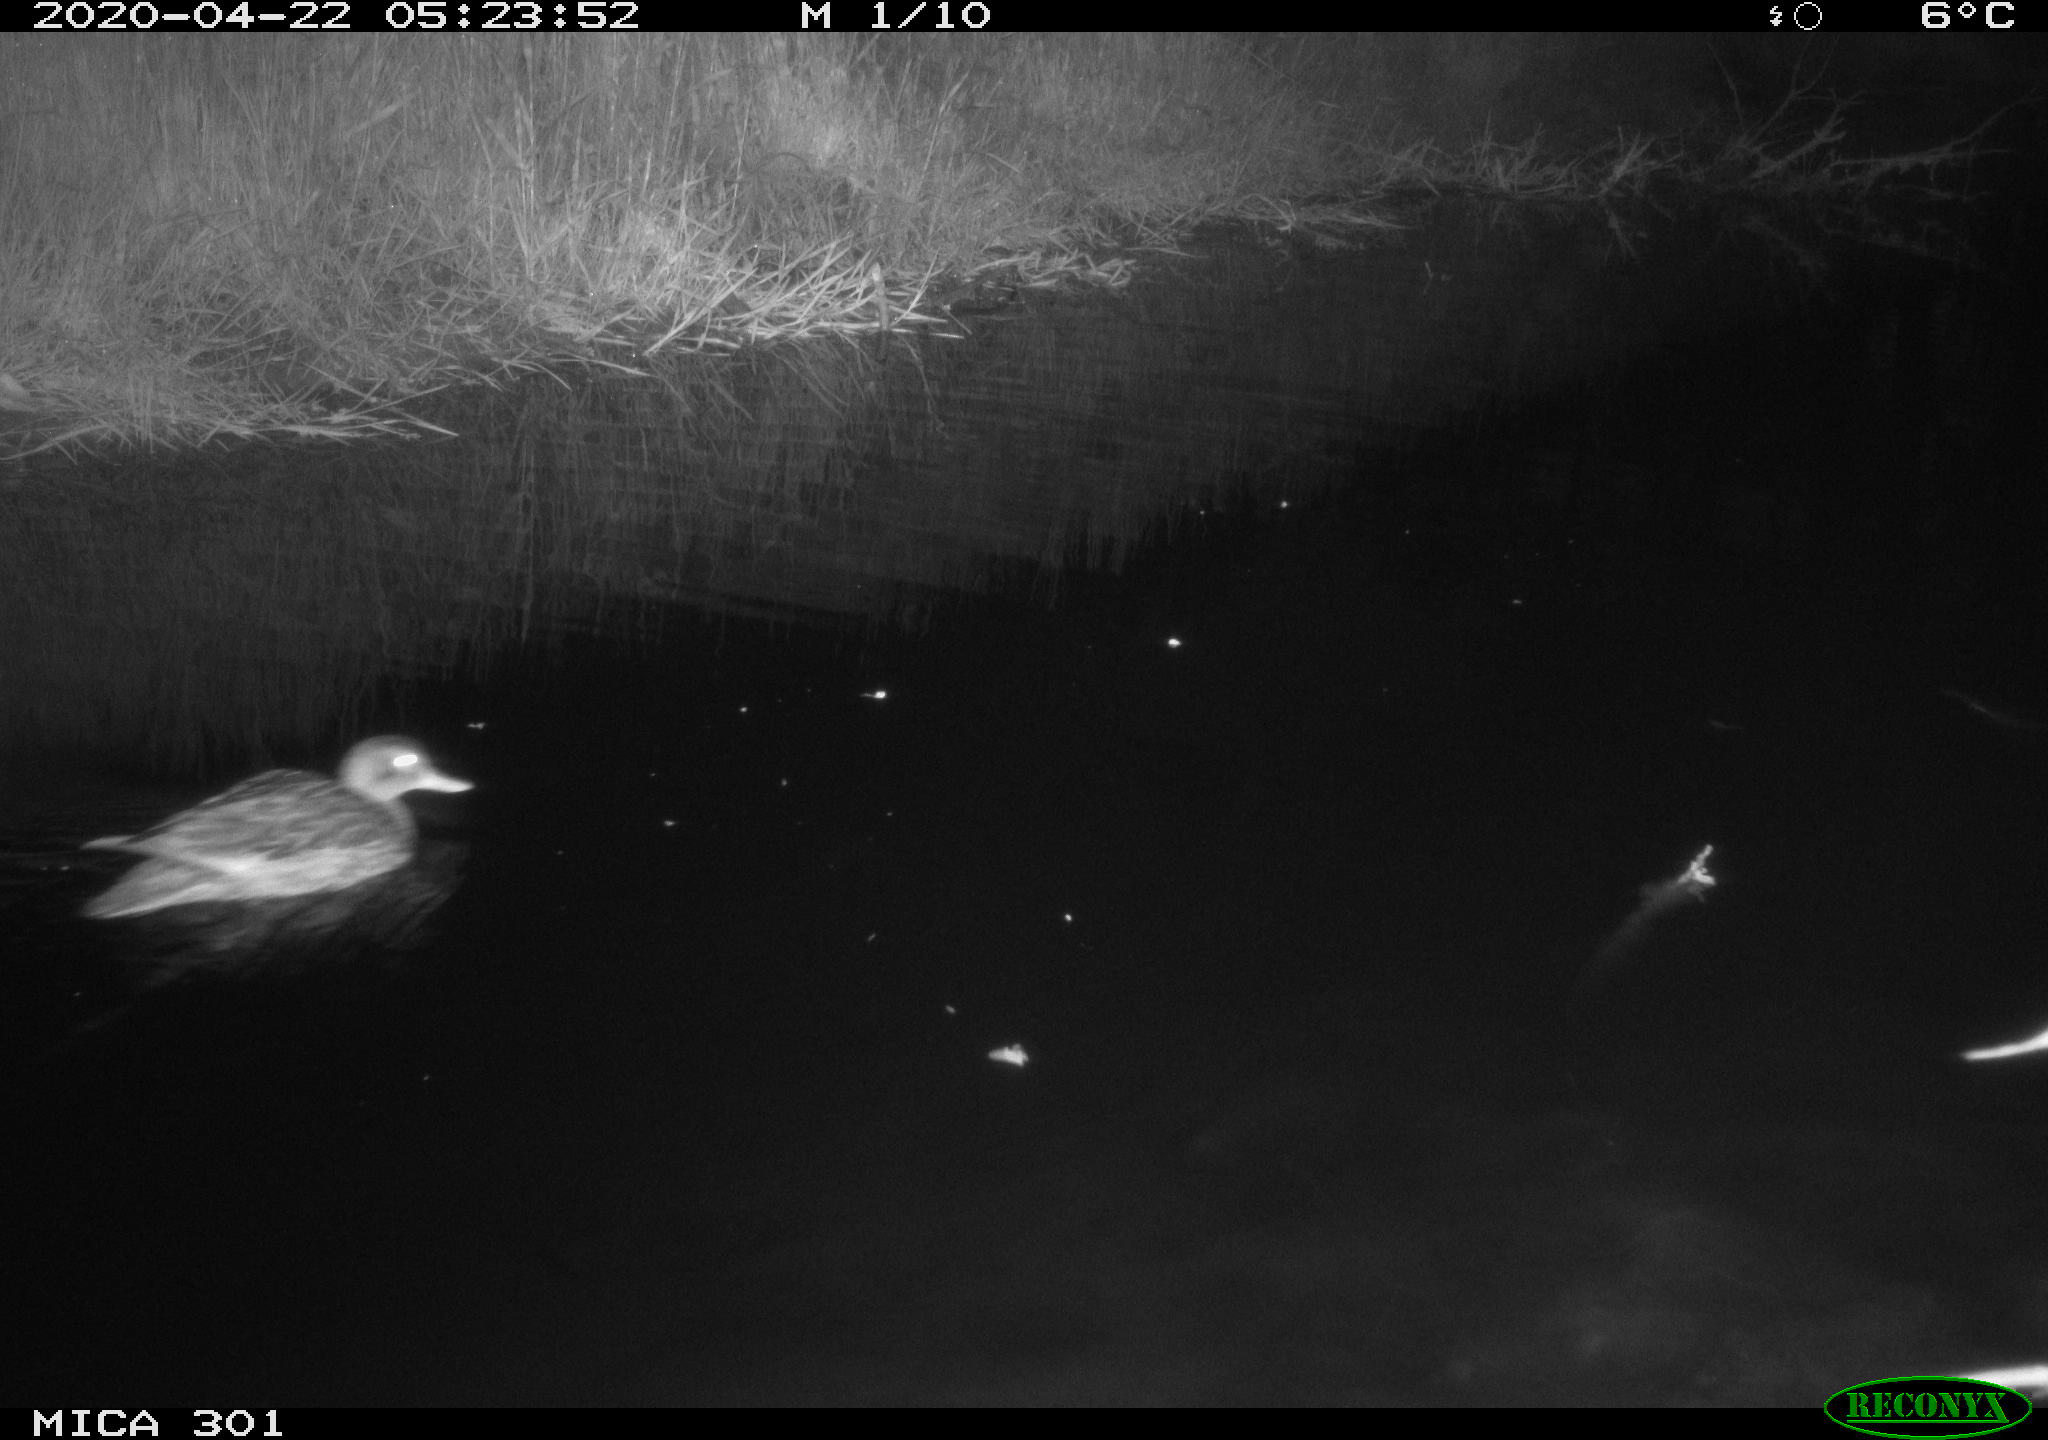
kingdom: Animalia
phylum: Chordata
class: Aves
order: Anseriformes
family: Anatidae
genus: Mareca
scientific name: Mareca strepera
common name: Gadwall
